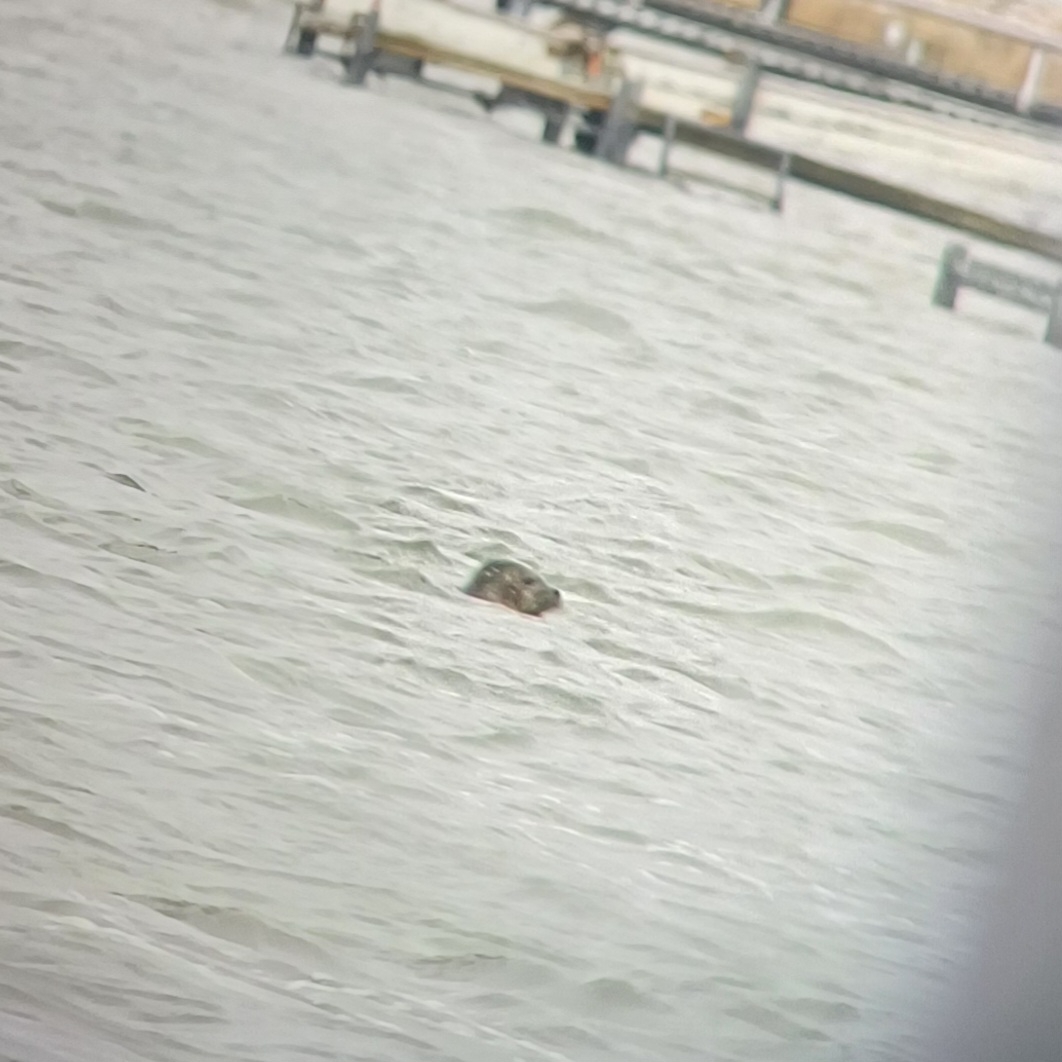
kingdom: Animalia
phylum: Chordata
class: Mammalia
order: Carnivora
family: Phocidae
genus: Phoca
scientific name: Phoca vitulina
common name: Spættet sæl
